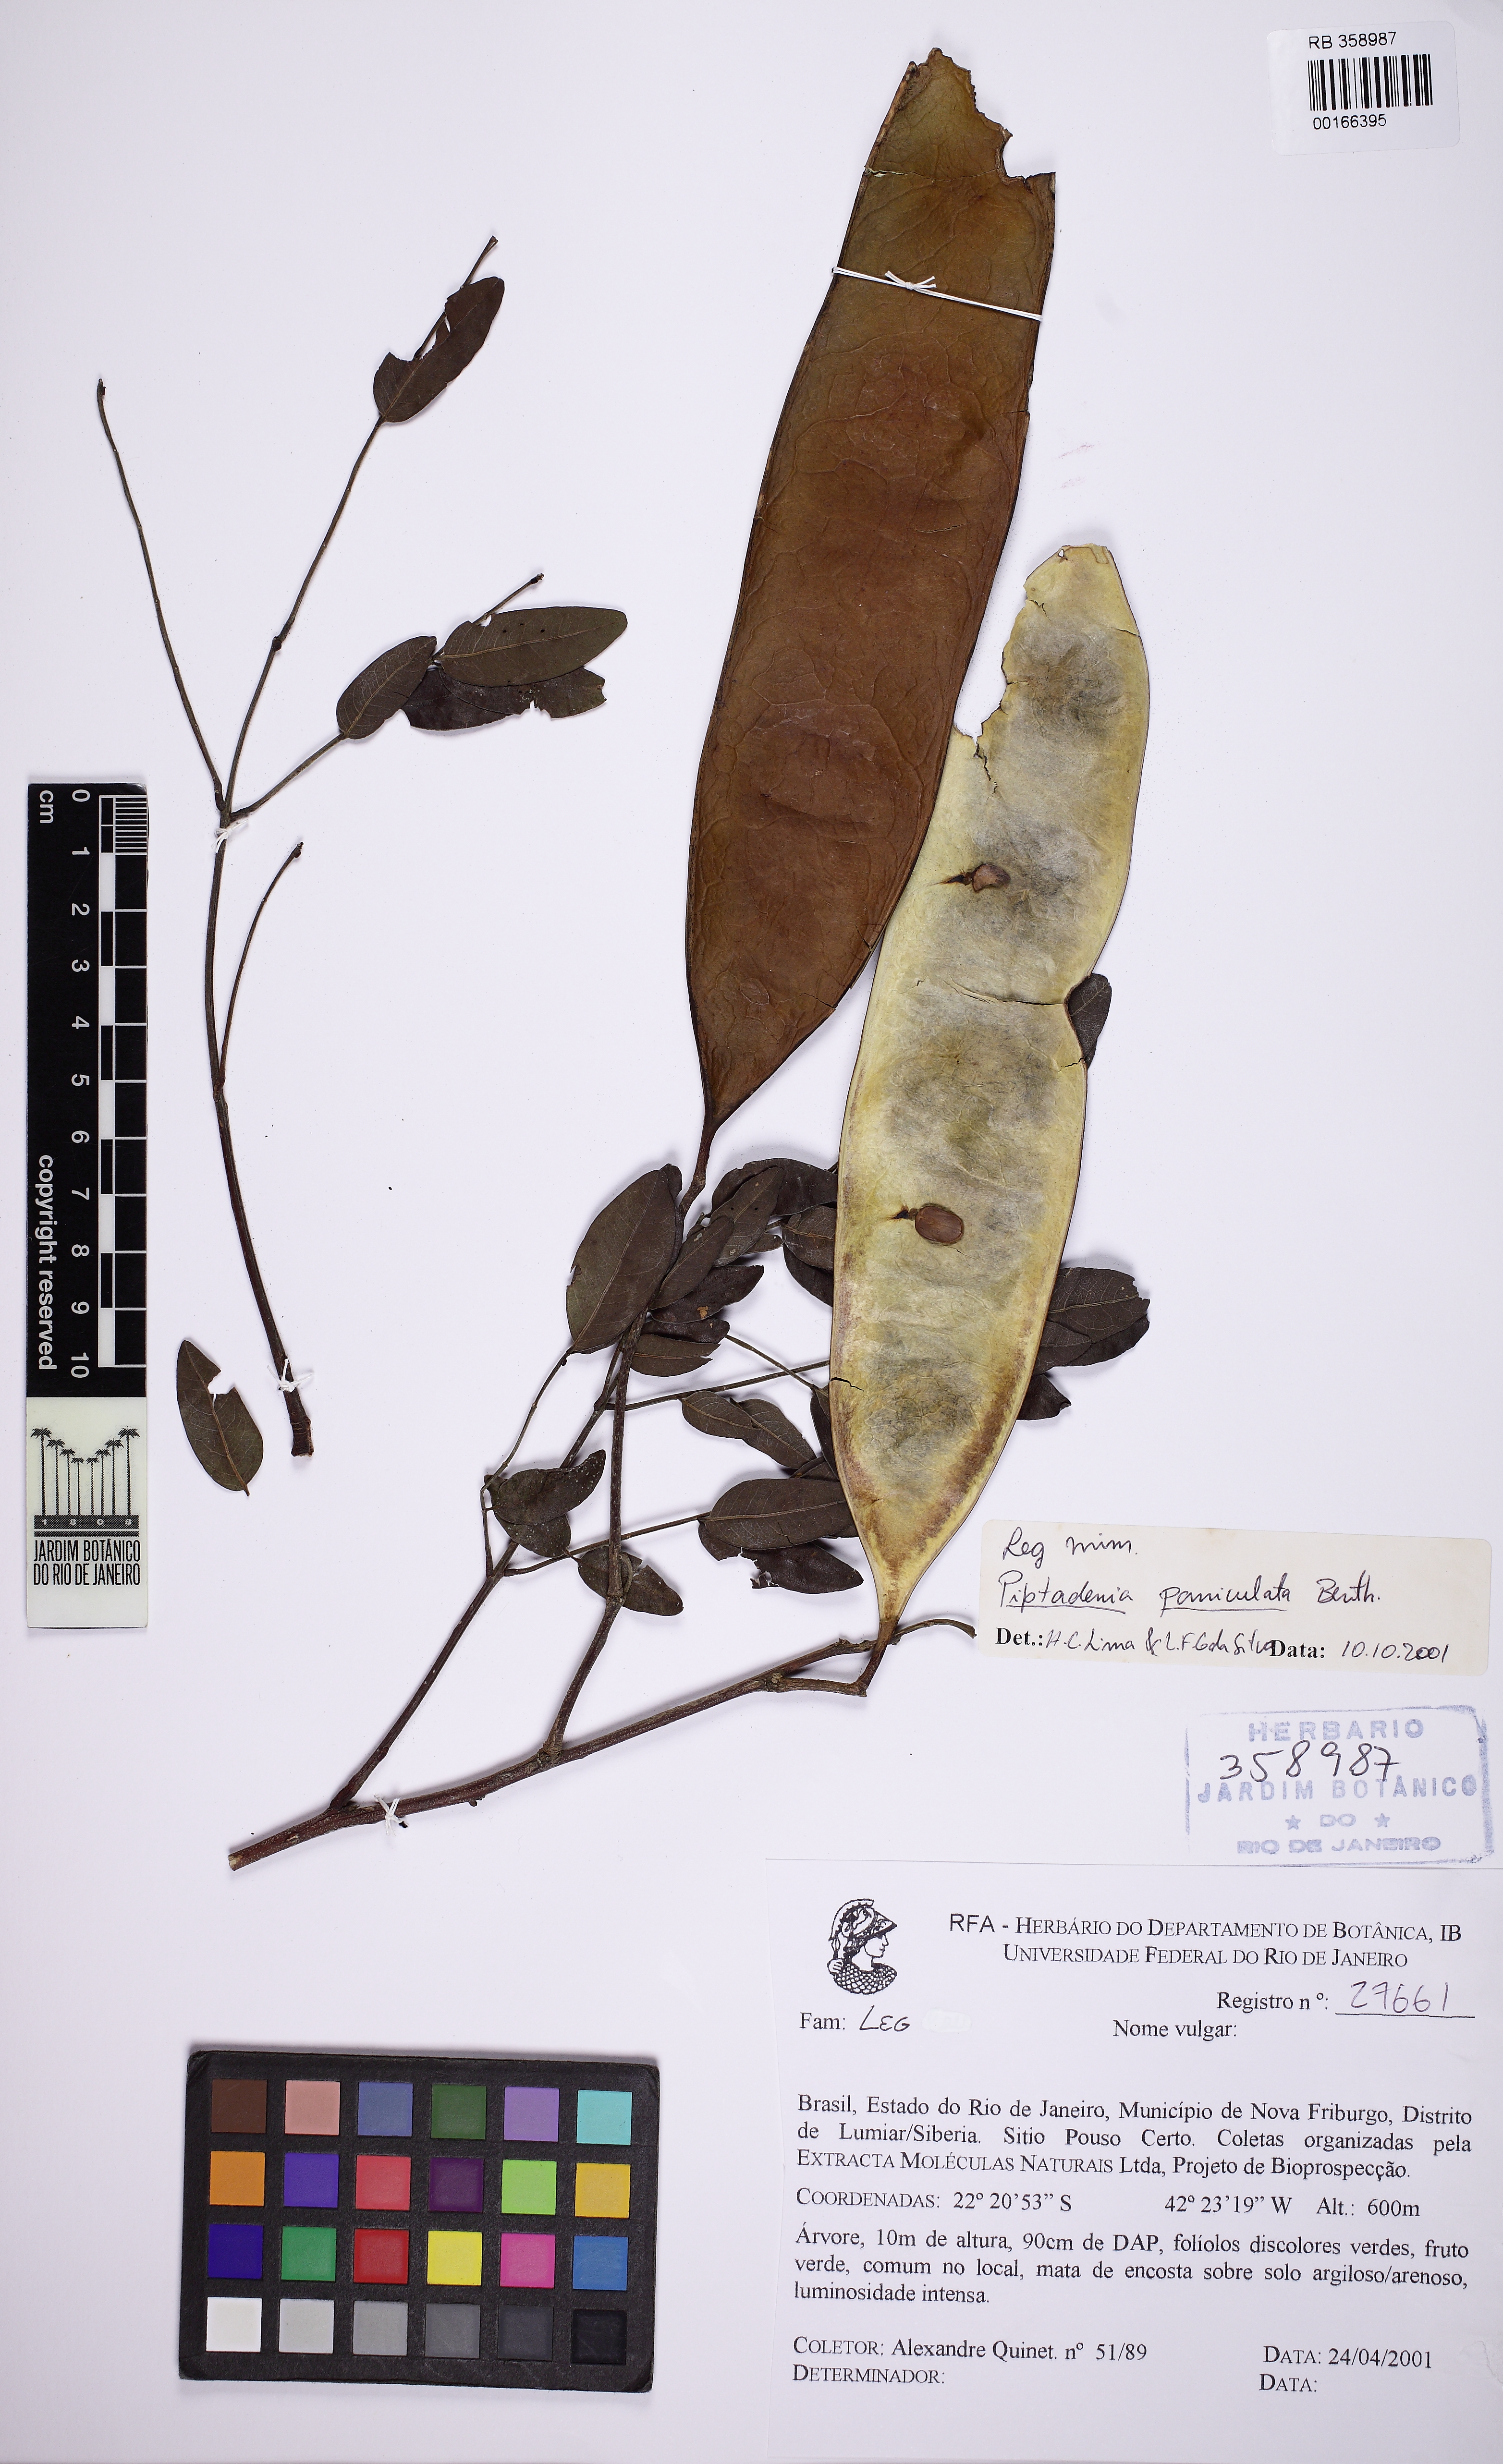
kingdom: Plantae
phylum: Tracheophyta
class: Magnoliopsida
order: Fabales
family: Fabaceae
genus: Piptadenia
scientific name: Piptadenia paniculata
